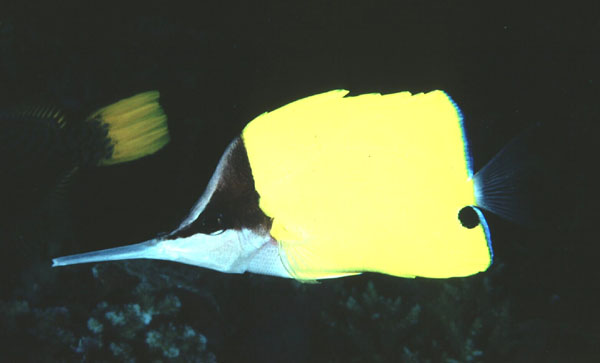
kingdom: Animalia
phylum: Chordata
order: Perciformes
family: Chaetodontidae
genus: Forcipiger
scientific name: Forcipiger longirostris
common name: Longnose butterflyfish
